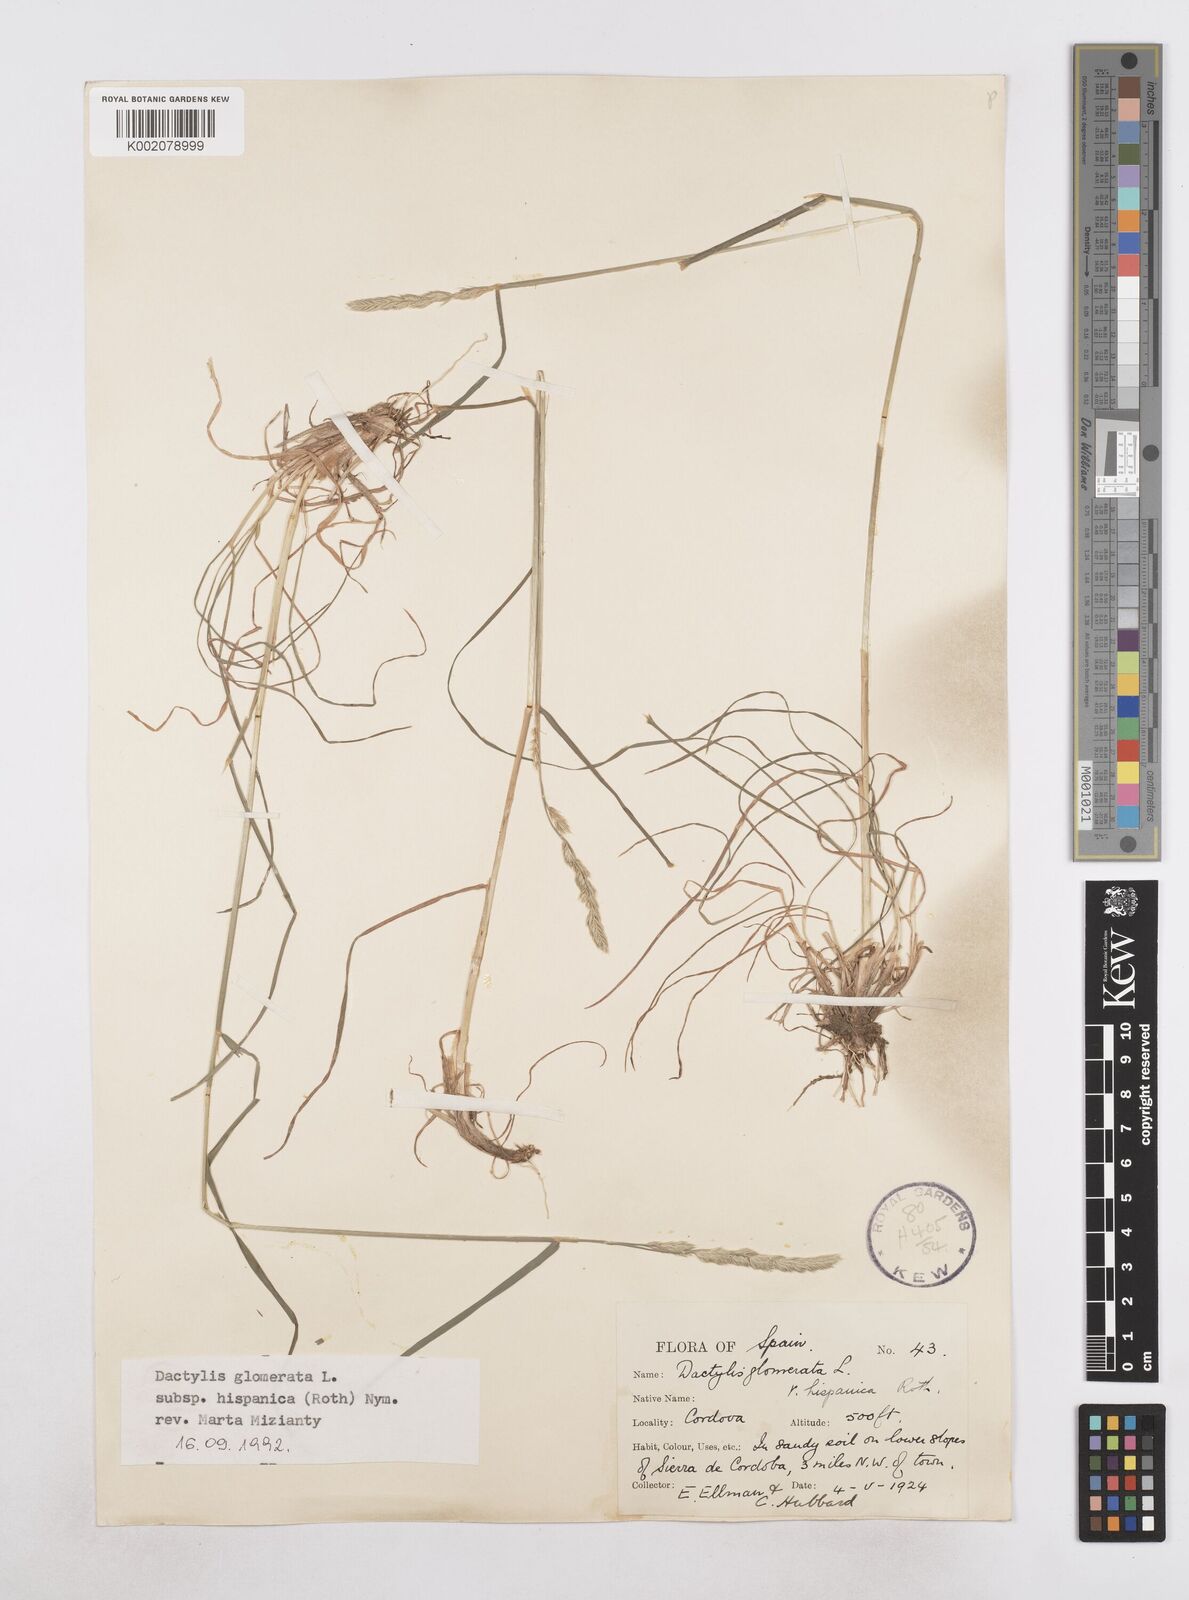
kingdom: Plantae
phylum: Tracheophyta
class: Liliopsida
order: Poales
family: Poaceae
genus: Dactylis
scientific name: Dactylis glomerata
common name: Orchardgrass
